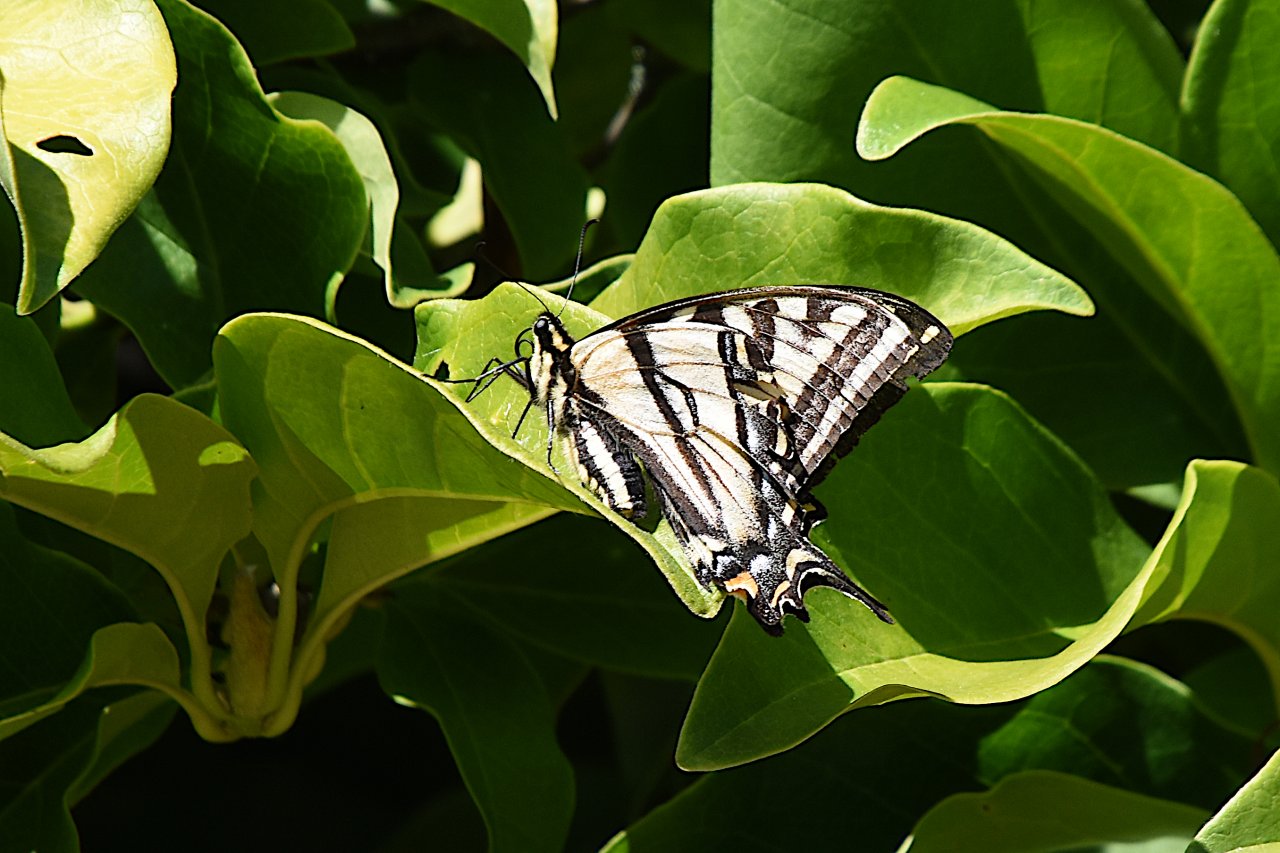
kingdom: Animalia
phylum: Arthropoda
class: Insecta
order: Lepidoptera
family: Papilionidae
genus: Pterourus
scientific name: Pterourus rutulus
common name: Western Tiger Swallowtail
